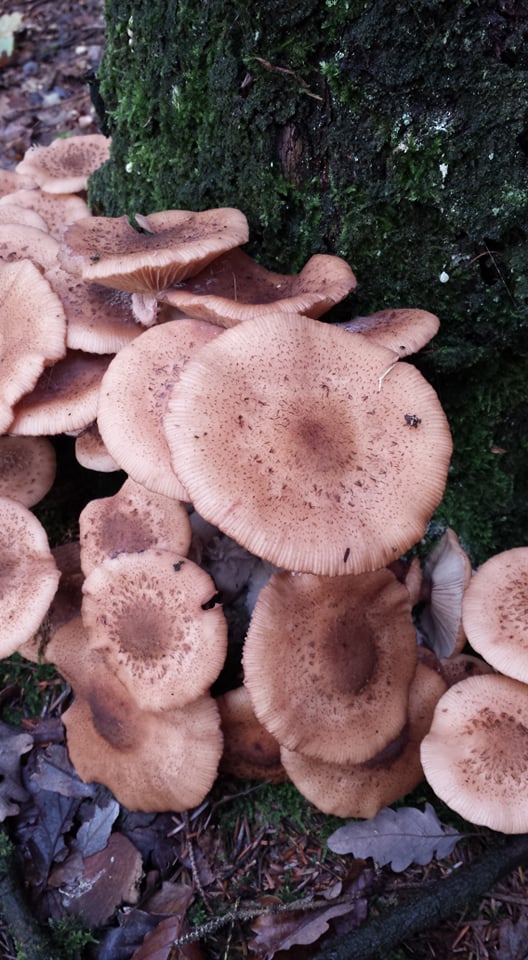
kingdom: Fungi
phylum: Basidiomycota
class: Agaricomycetes
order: Agaricales
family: Physalacriaceae
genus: Armillaria
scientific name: Armillaria ostoyae
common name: mørk honningsvamp
